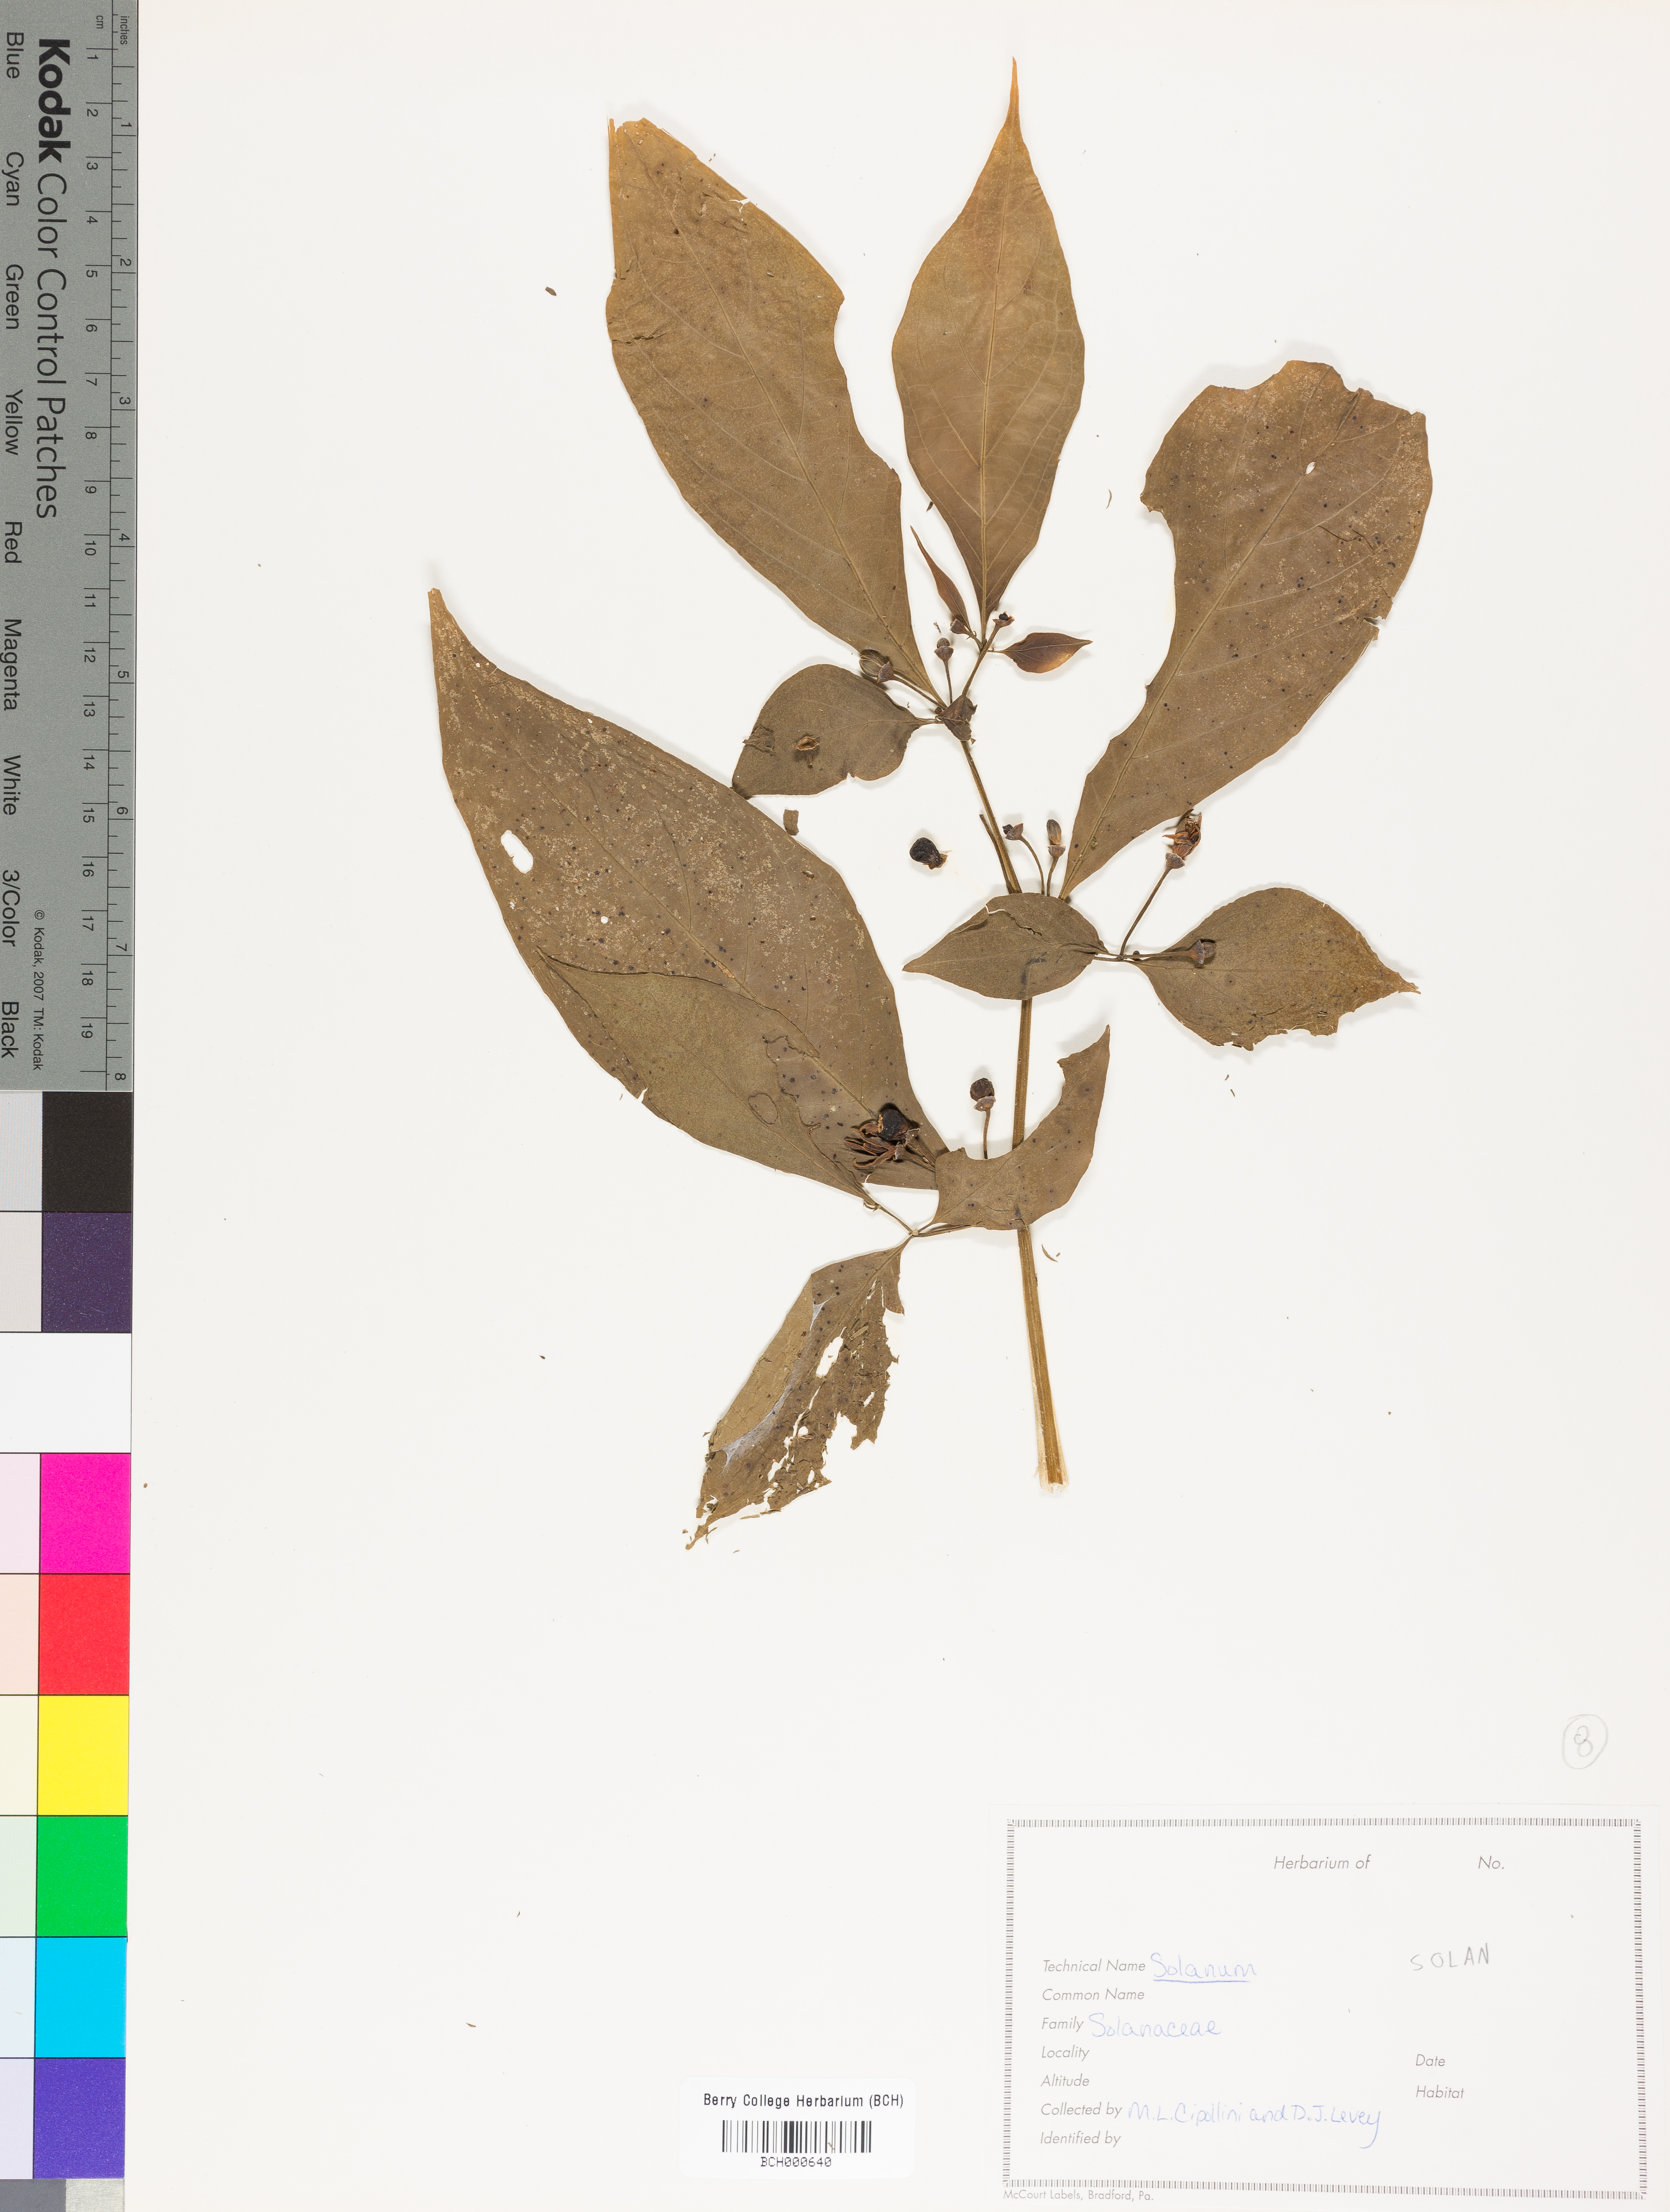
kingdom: Plantae
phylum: Tracheophyta
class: Magnoliopsida
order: Solanales
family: Solanaceae
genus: Solanum
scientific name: Solanum
